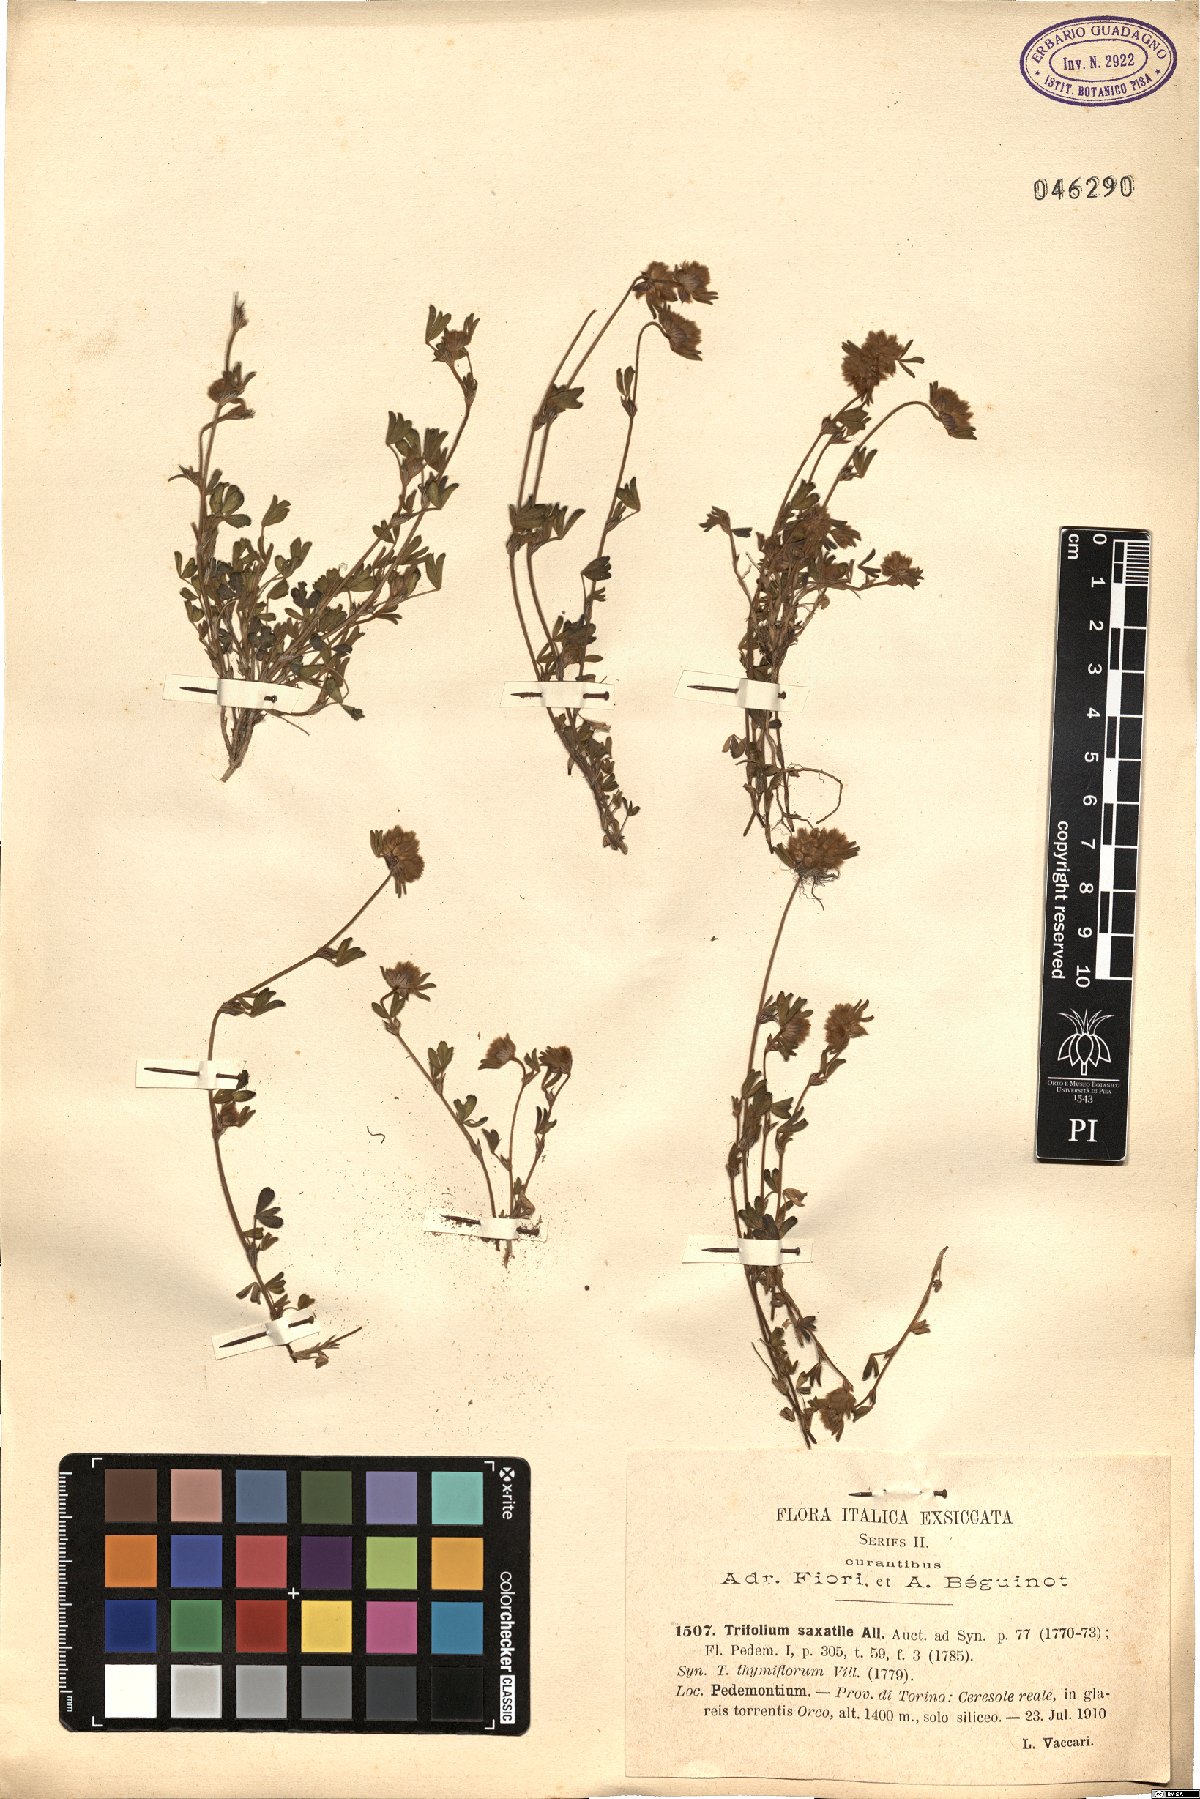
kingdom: Plantae
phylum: Tracheophyta
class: Magnoliopsida
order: Fabales
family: Fabaceae
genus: Trifolium
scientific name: Trifolium saxatile
